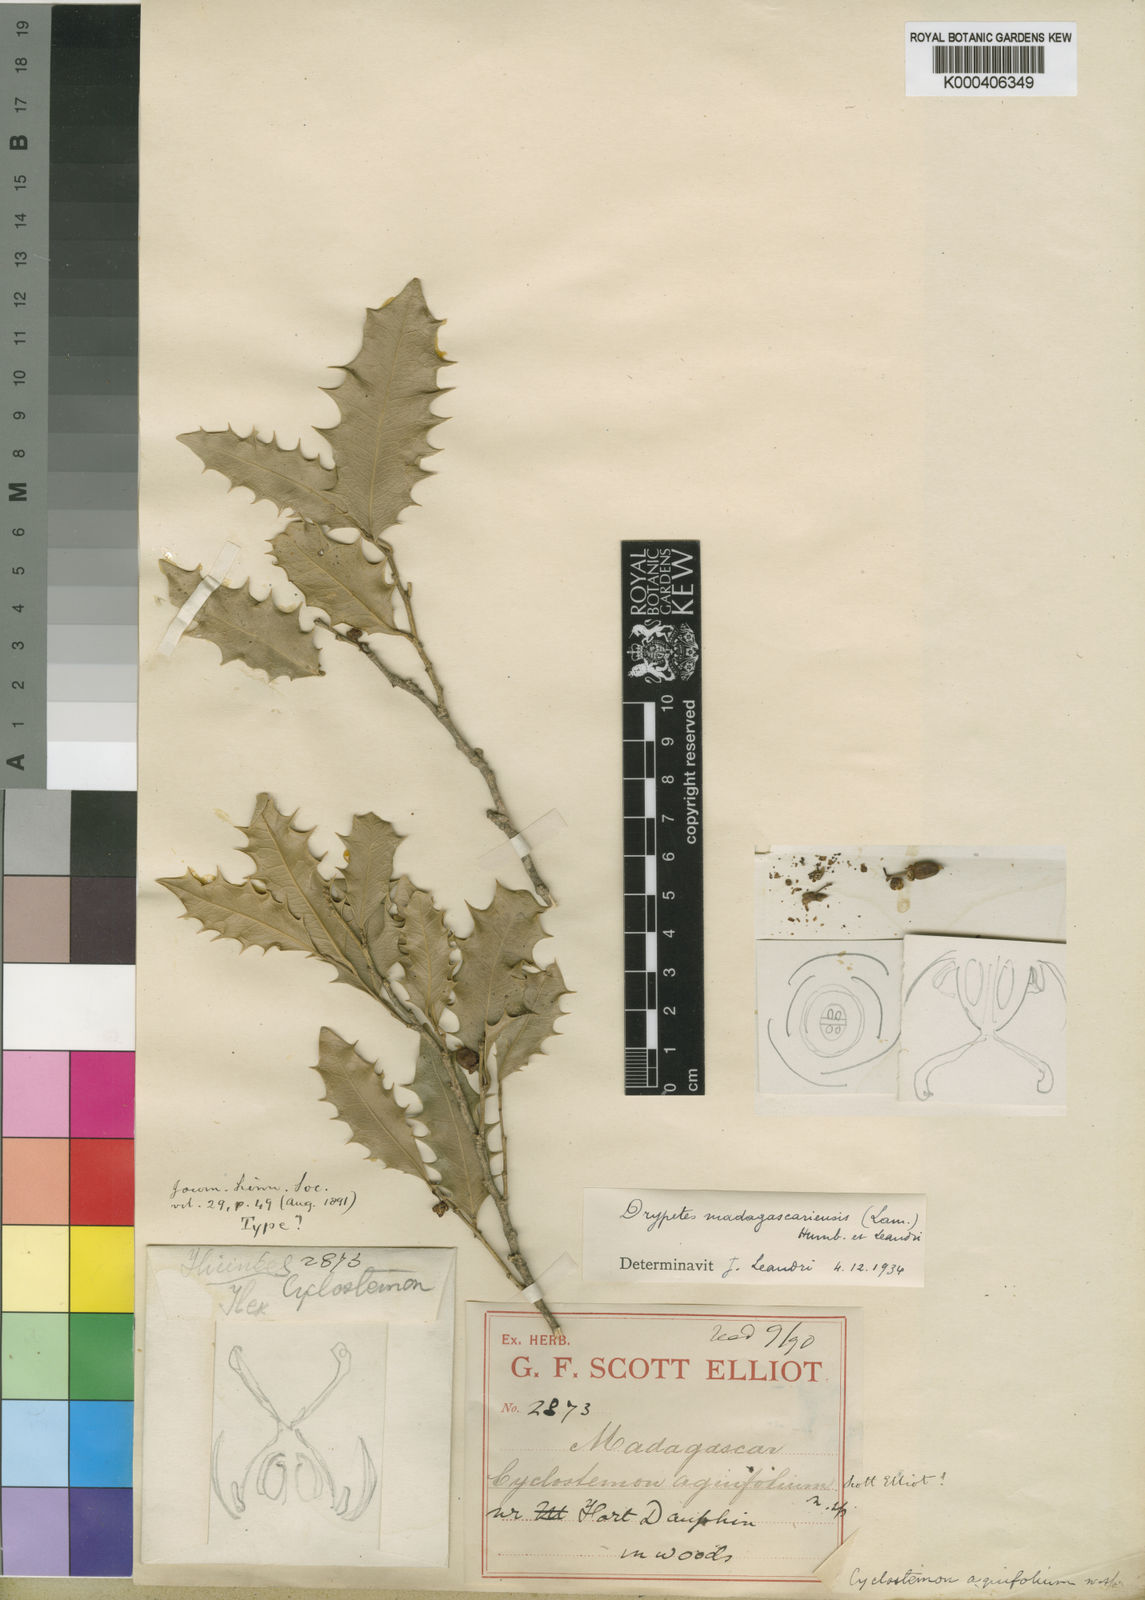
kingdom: Plantae
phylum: Tracheophyta
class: Magnoliopsida
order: Malpighiales
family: Putranjivaceae
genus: Drypetes
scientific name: Drypetes madagascariensis
